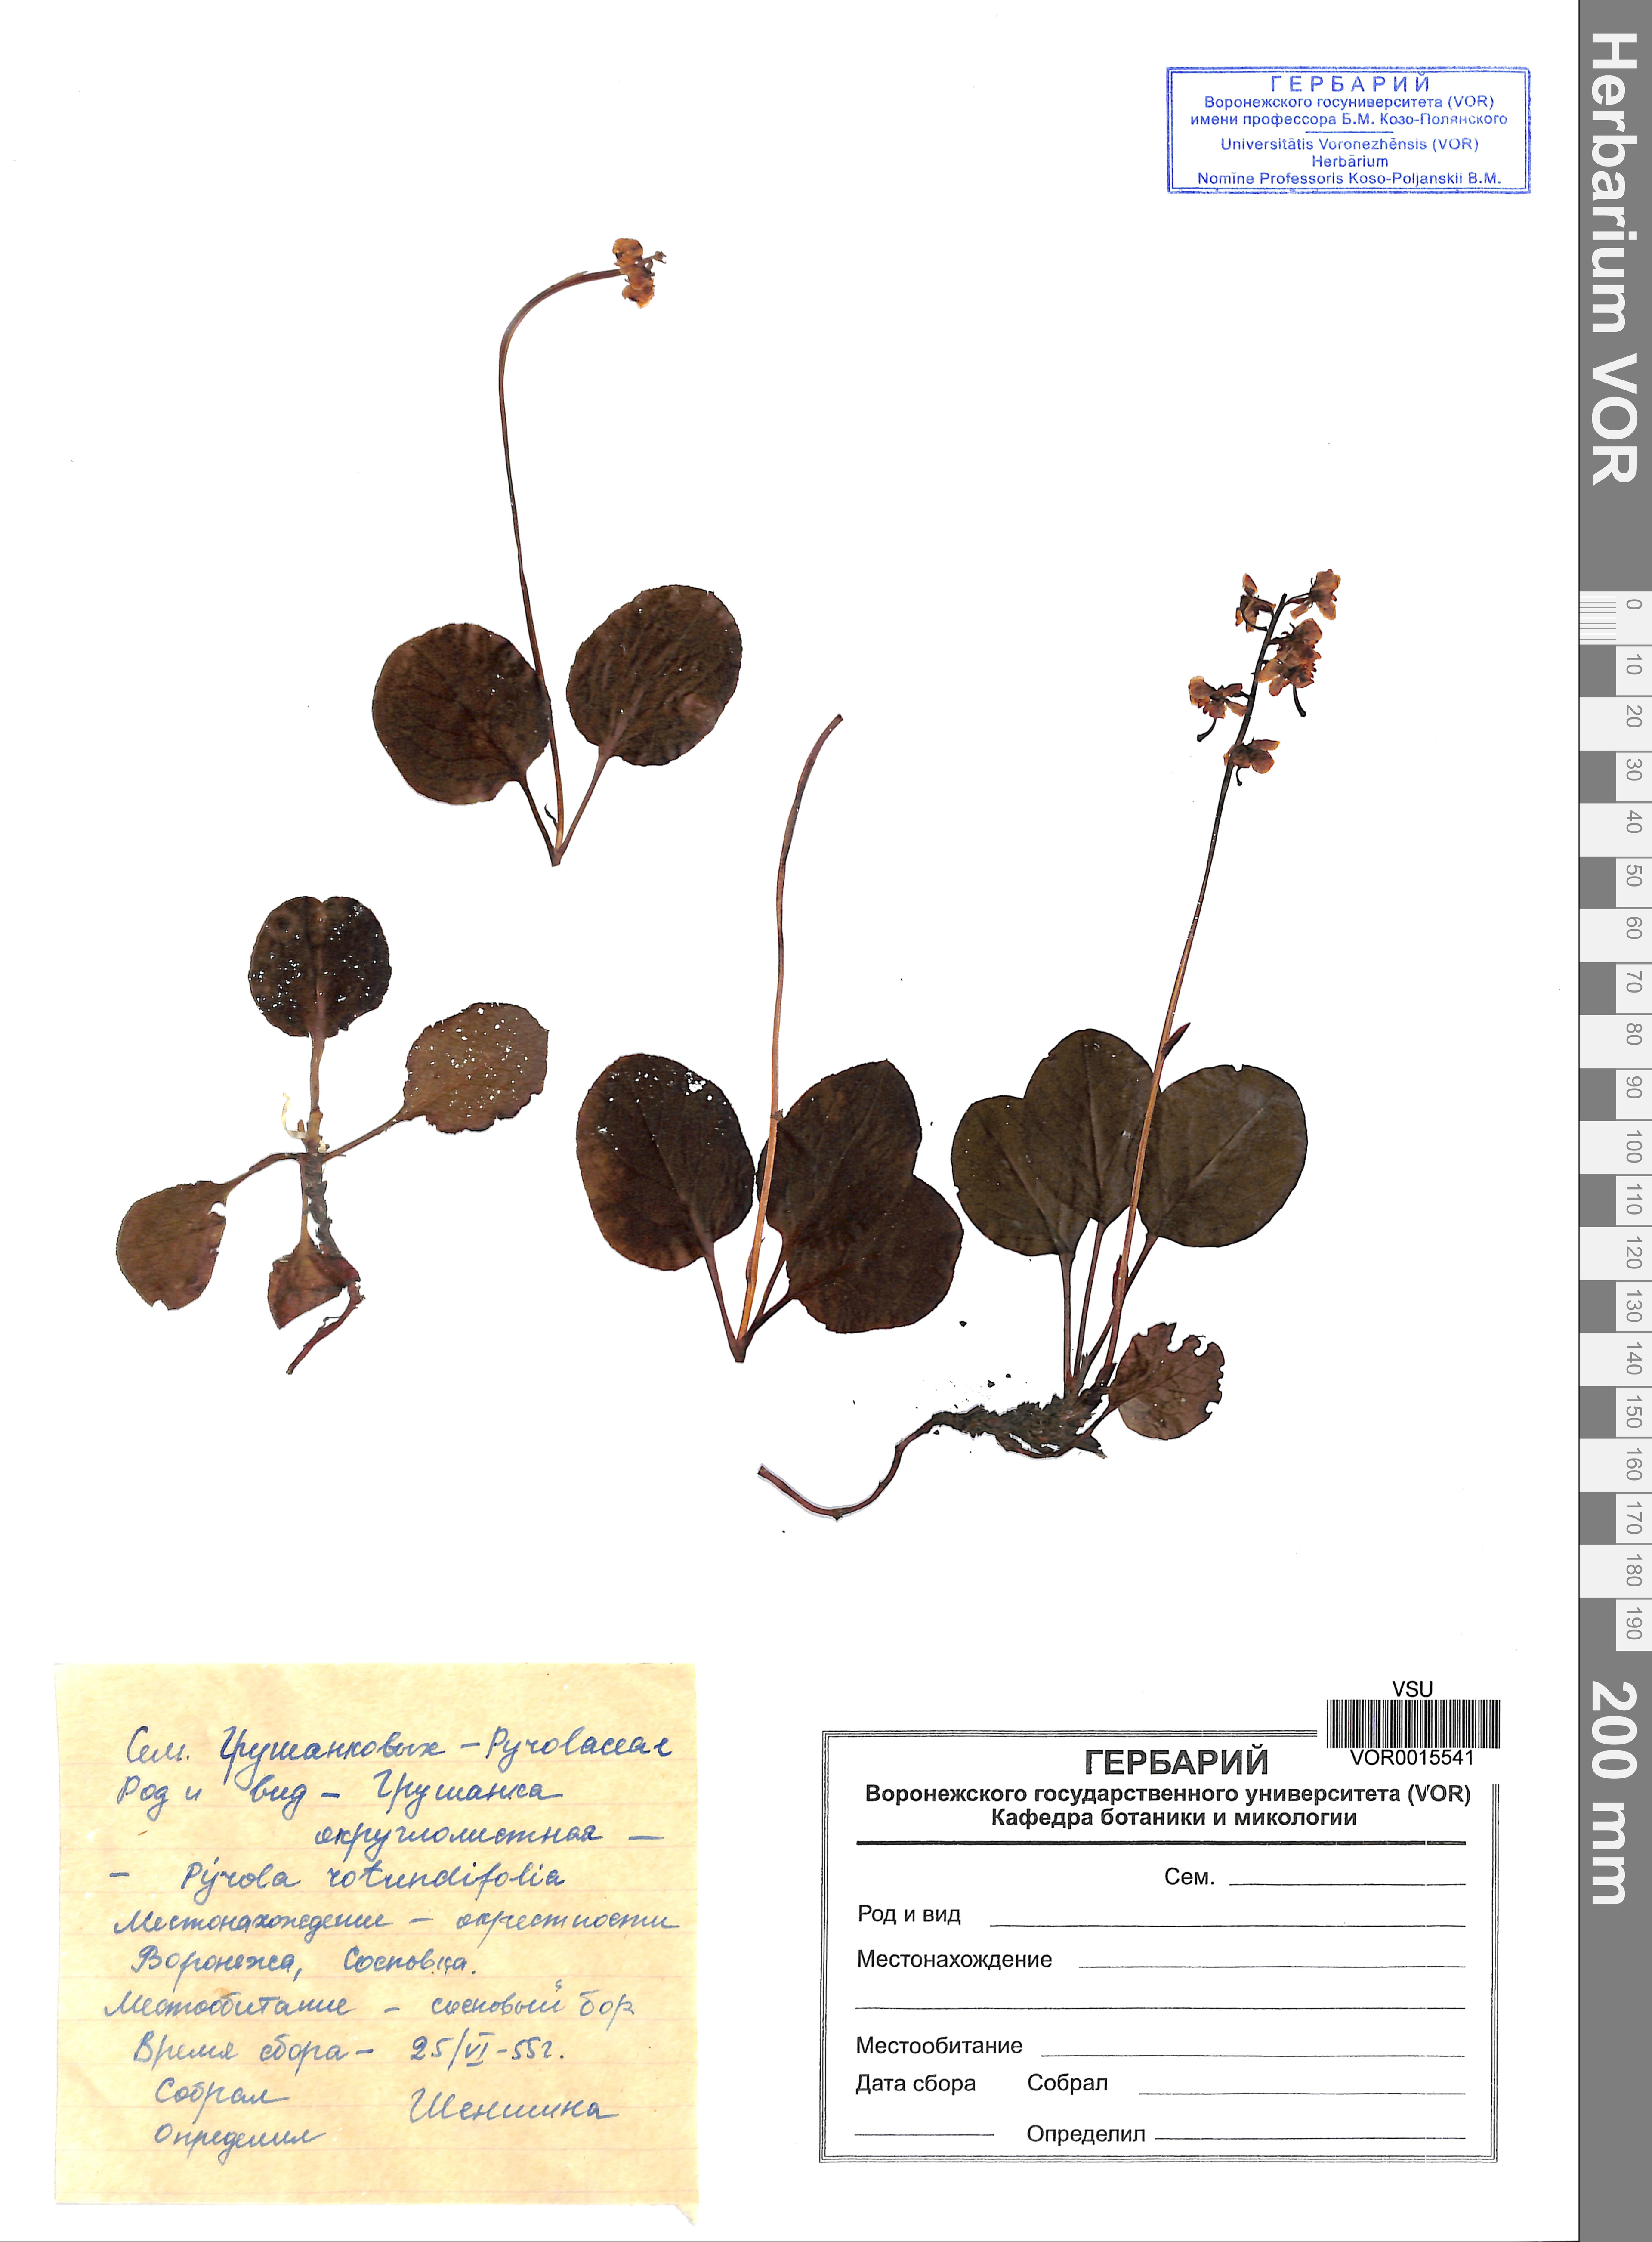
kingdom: Plantae
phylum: Tracheophyta
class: Magnoliopsida
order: Ericales
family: Ericaceae
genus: Pyrola
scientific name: Pyrola rotundifolia
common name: Round-leaved wintergreen
